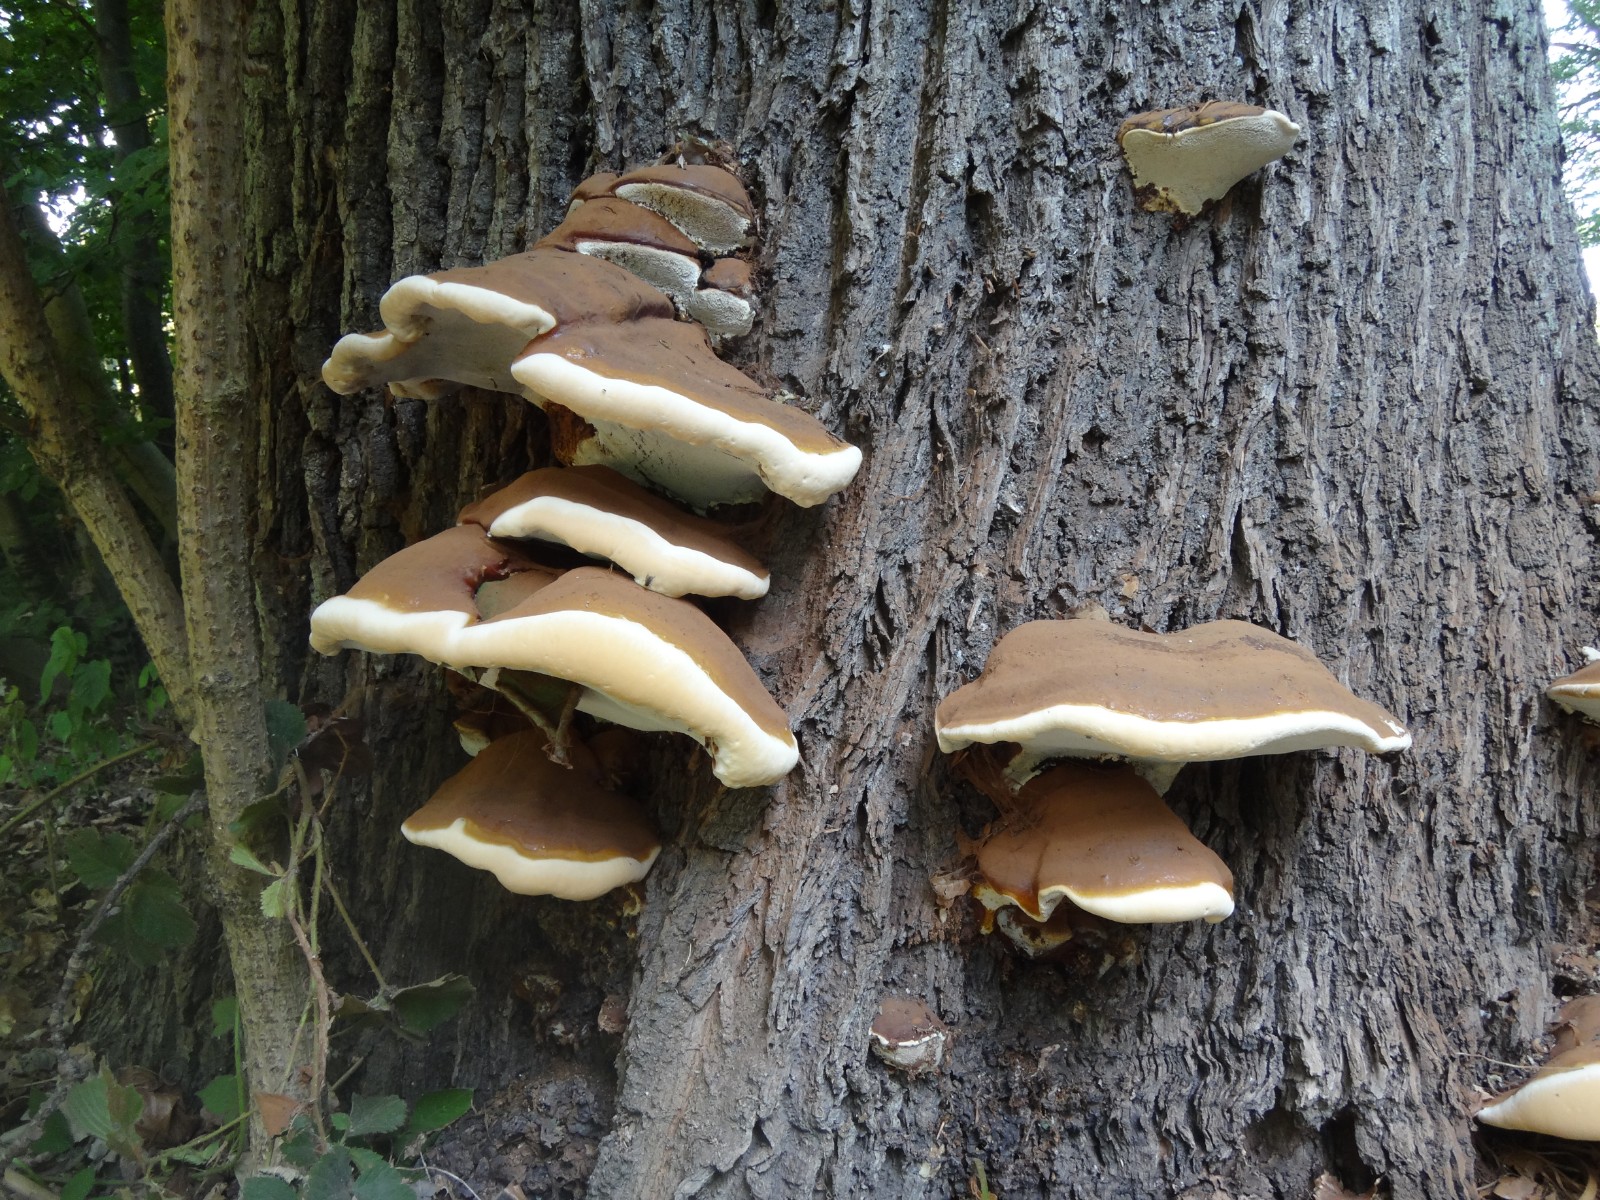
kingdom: Fungi
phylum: Basidiomycota
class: Agaricomycetes
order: Polyporales
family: Polyporaceae
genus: Ganoderma
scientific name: Ganoderma resinaceum
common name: gyldenbrun lakporesvamp
